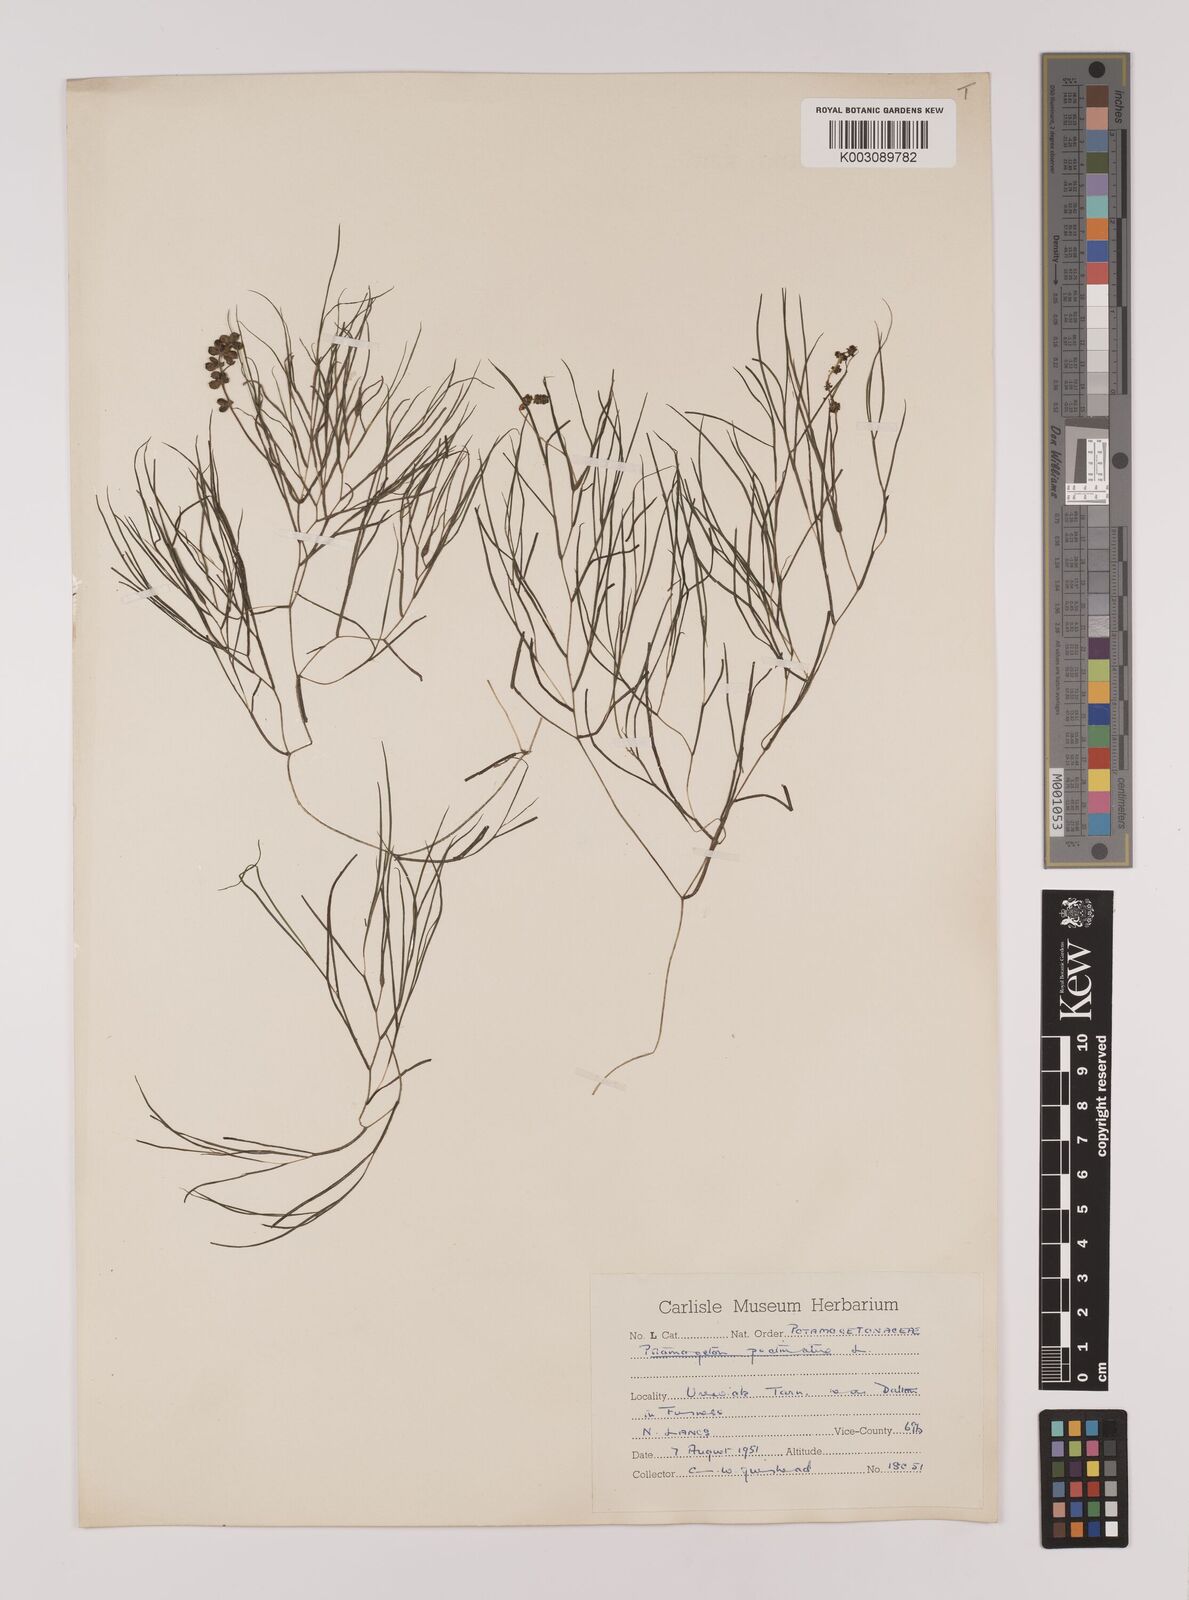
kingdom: Plantae
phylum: Tracheophyta
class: Liliopsida
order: Alismatales
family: Potamogetonaceae
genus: Stuckenia
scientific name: Stuckenia pectinata
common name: Sago pondweed
